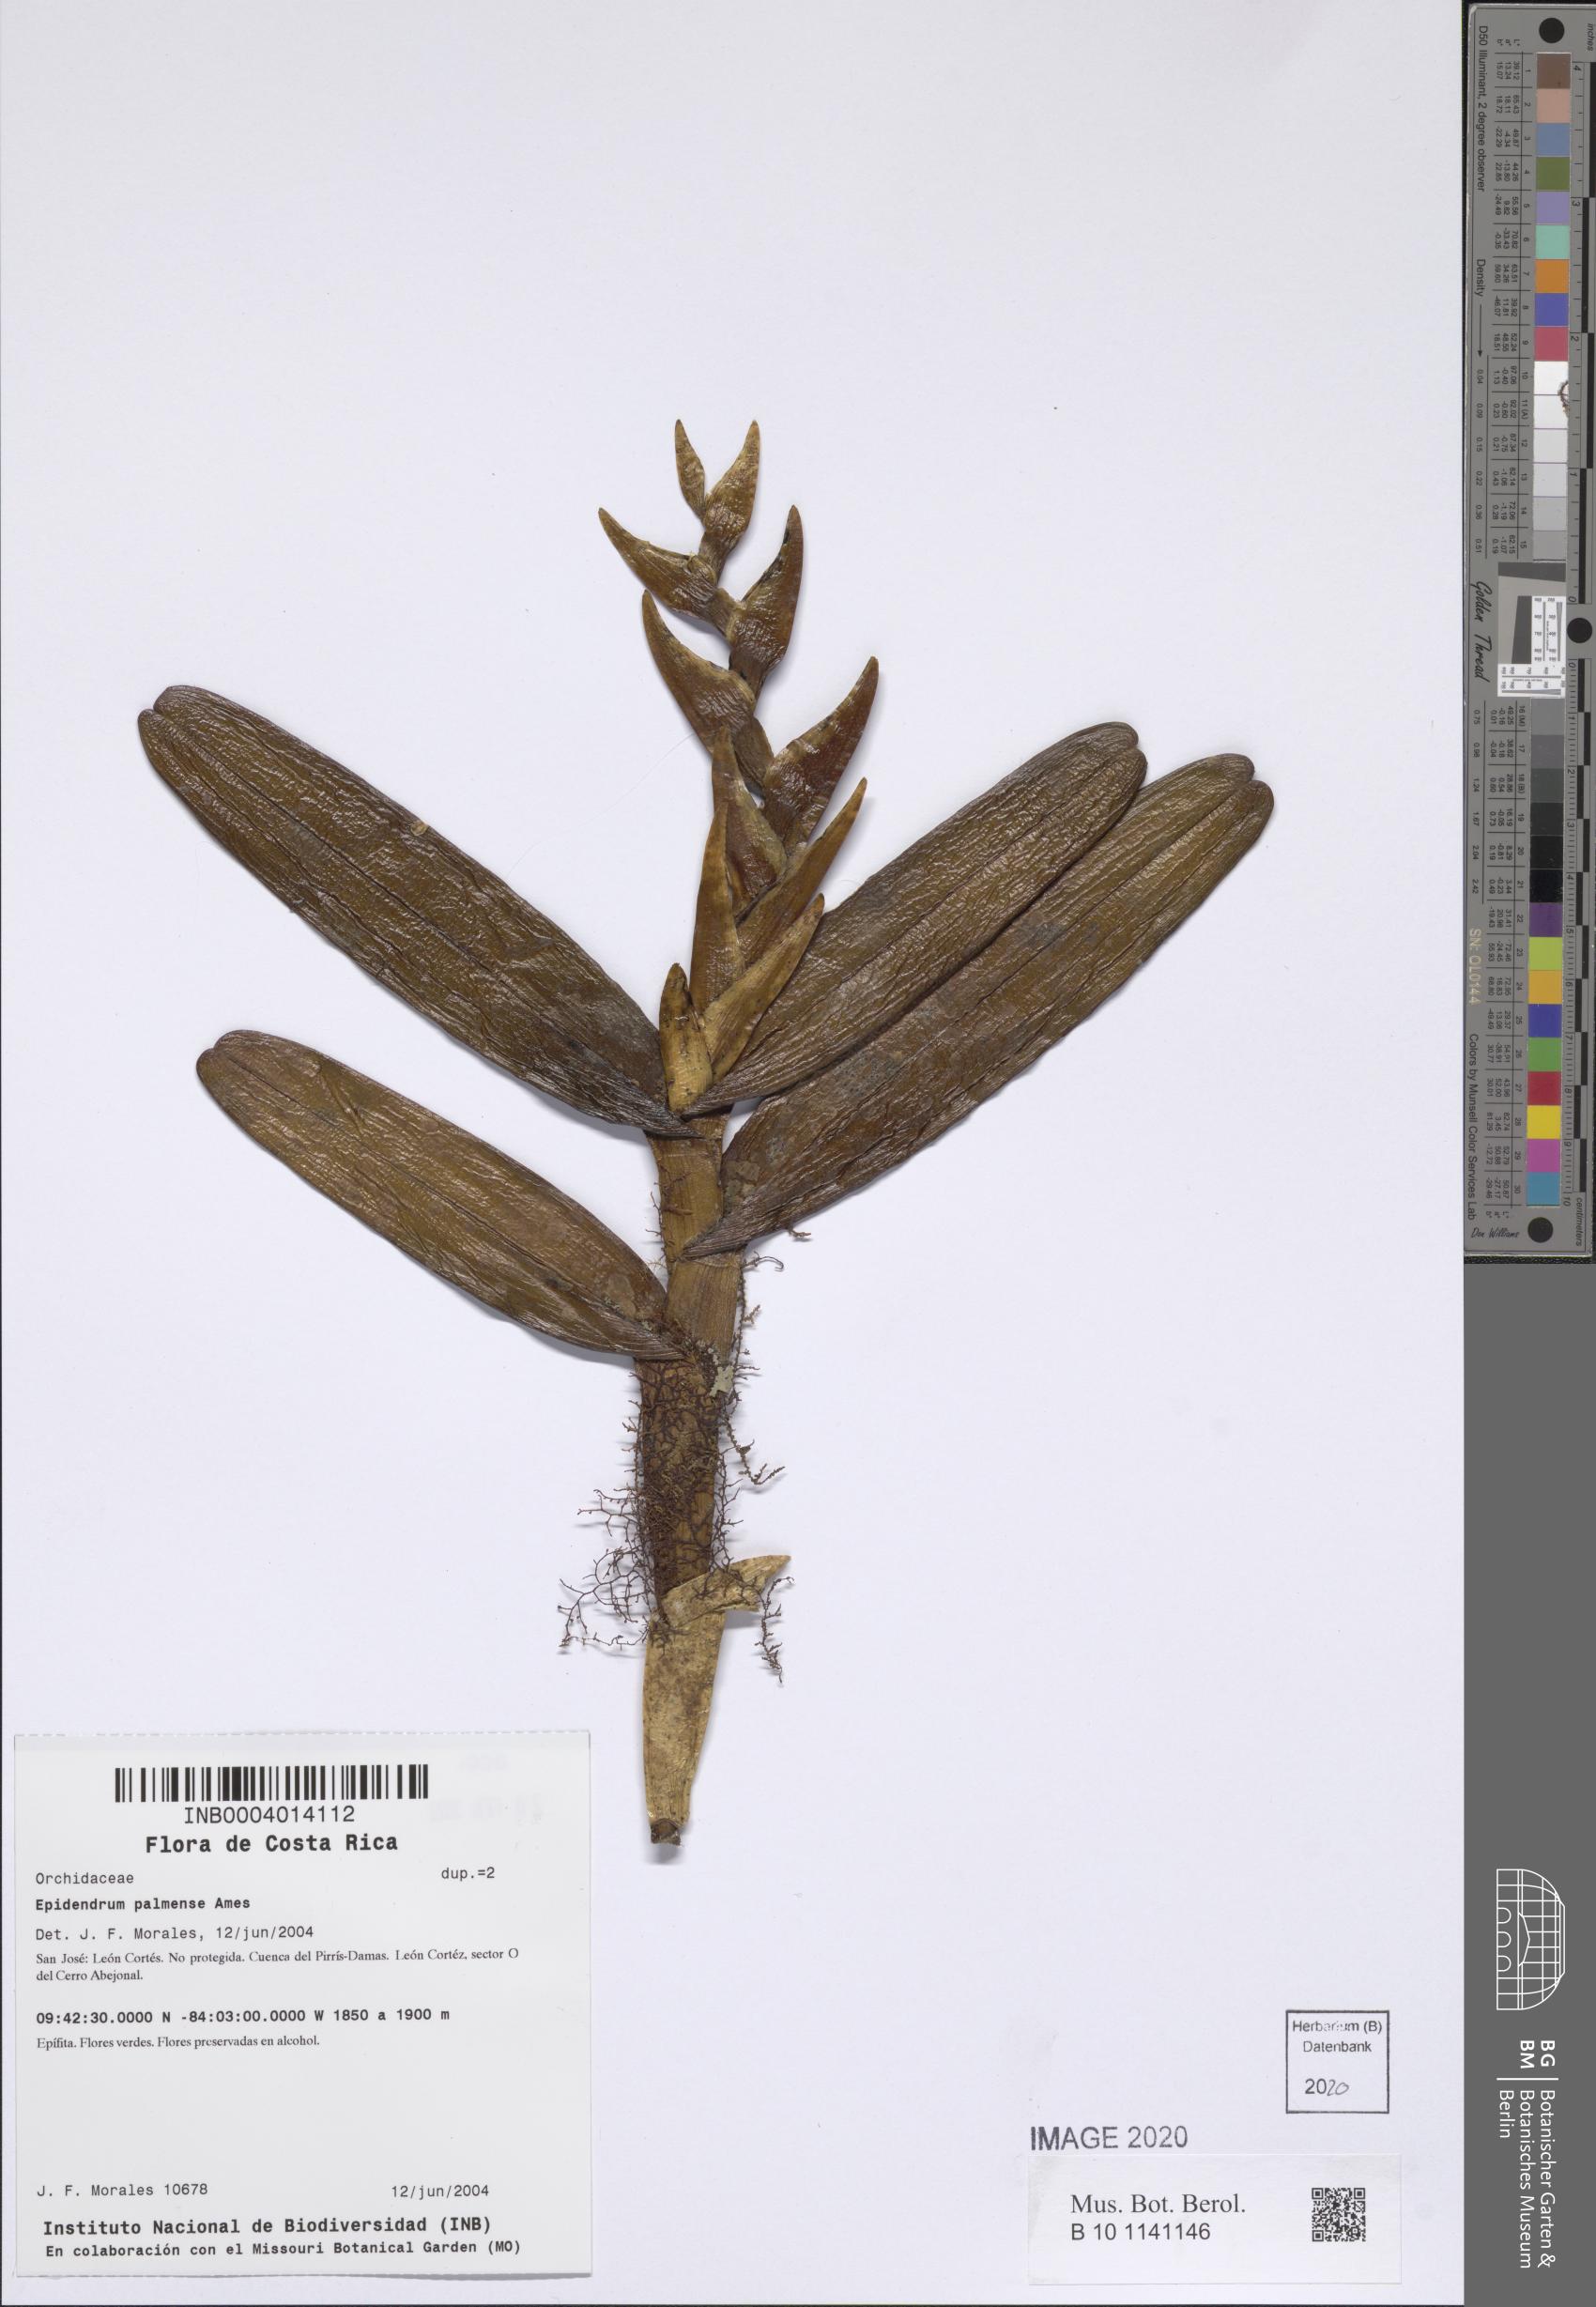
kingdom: Plantae
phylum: Tracheophyta
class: Liliopsida
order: Asparagales
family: Orchidaceae
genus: Epidendrum
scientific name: Epidendrum magnibracteatum
